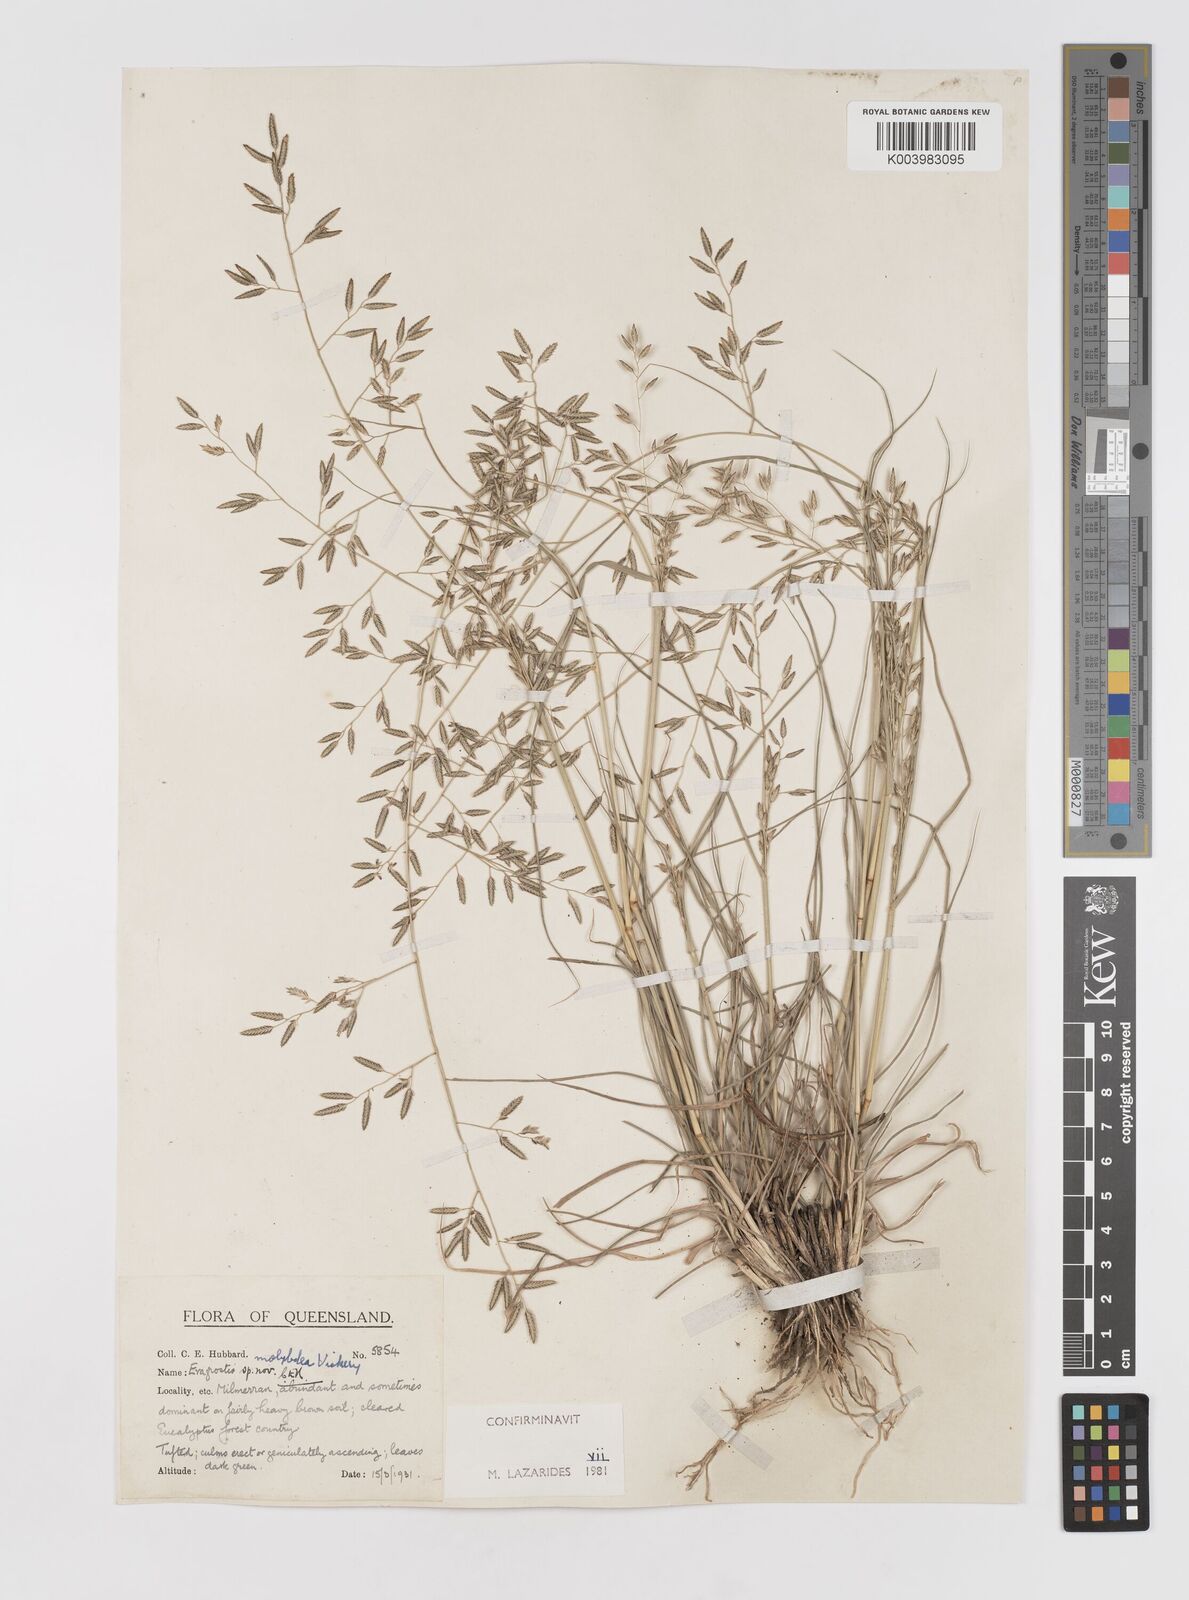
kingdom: Plantae
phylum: Tracheophyta
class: Liliopsida
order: Poales
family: Poaceae
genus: Eragrostis
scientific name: Eragrostis leptostachya
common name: Australian lovegrass
